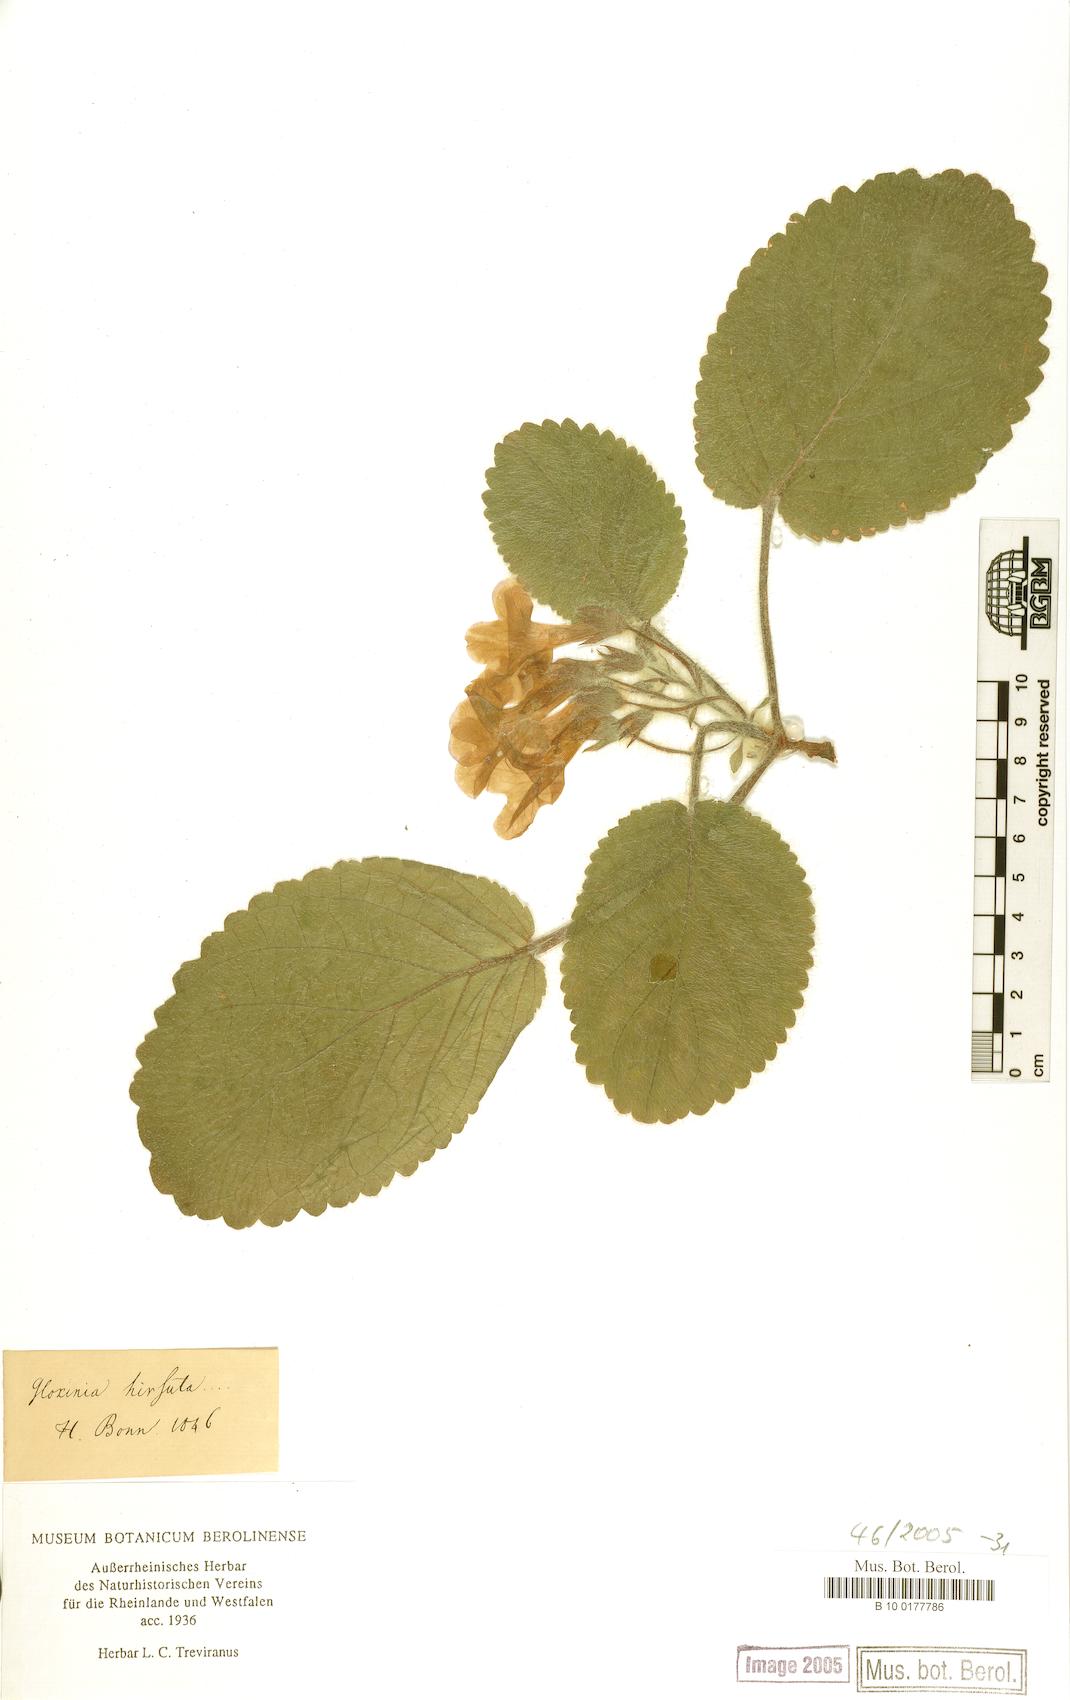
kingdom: Plantae
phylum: Tracheophyta
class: Magnoliopsida
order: Lamiales
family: Gesneriaceae
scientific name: Gesneriaceae
